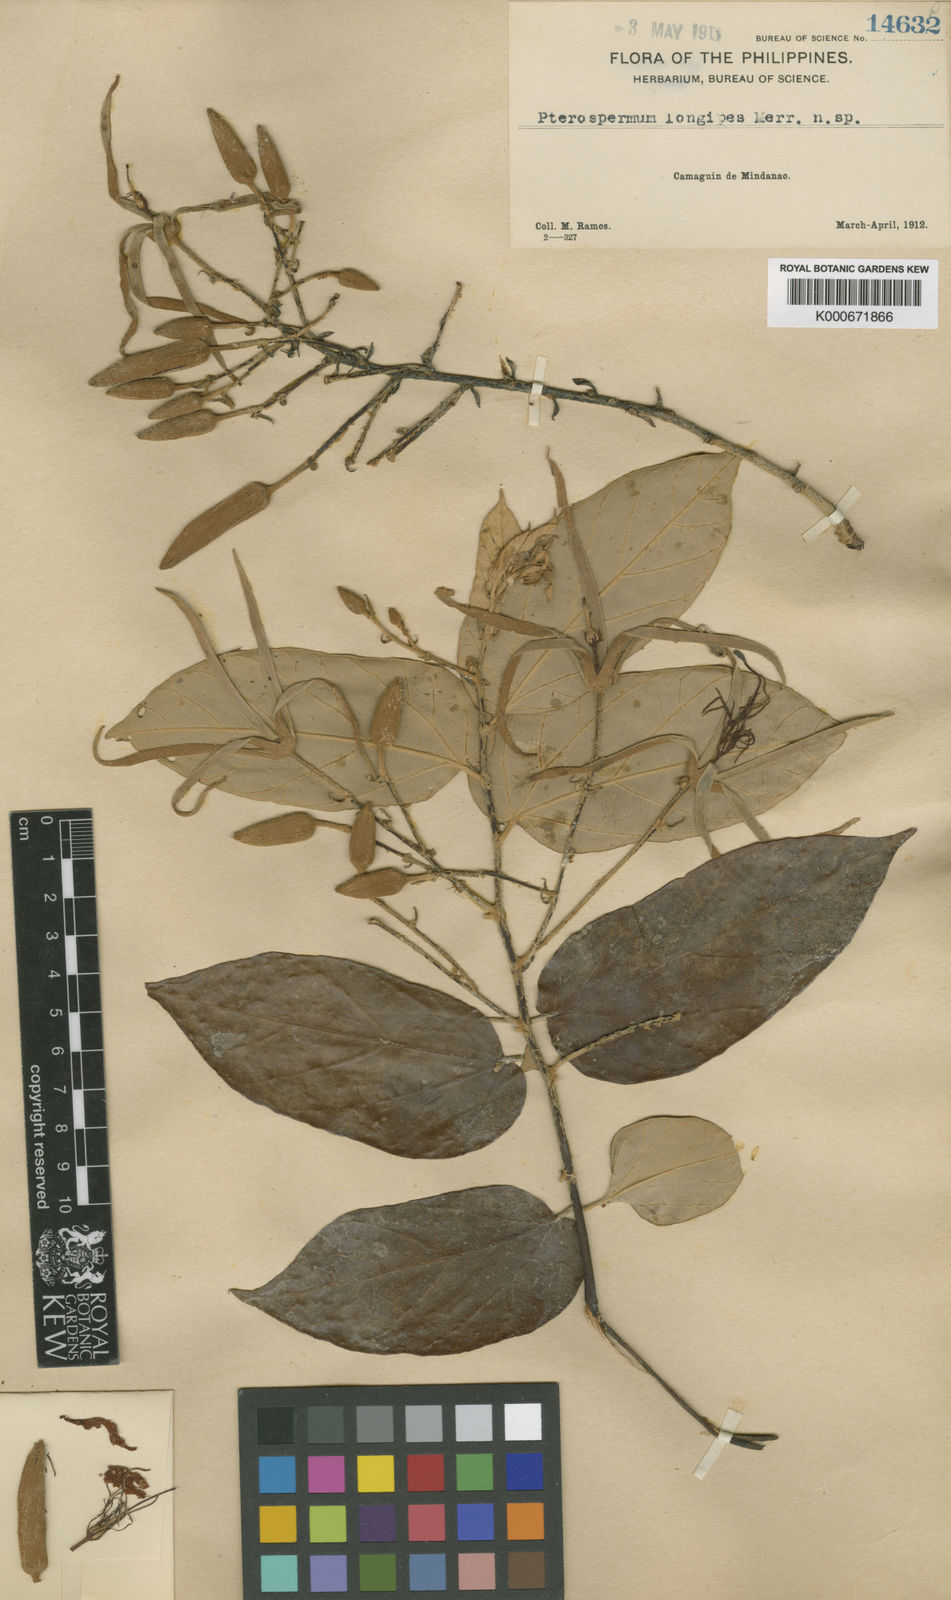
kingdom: Plantae
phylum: Tracheophyta
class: Magnoliopsida
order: Malvales
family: Malvaceae
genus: Pterospermum
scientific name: Pterospermum longipes
